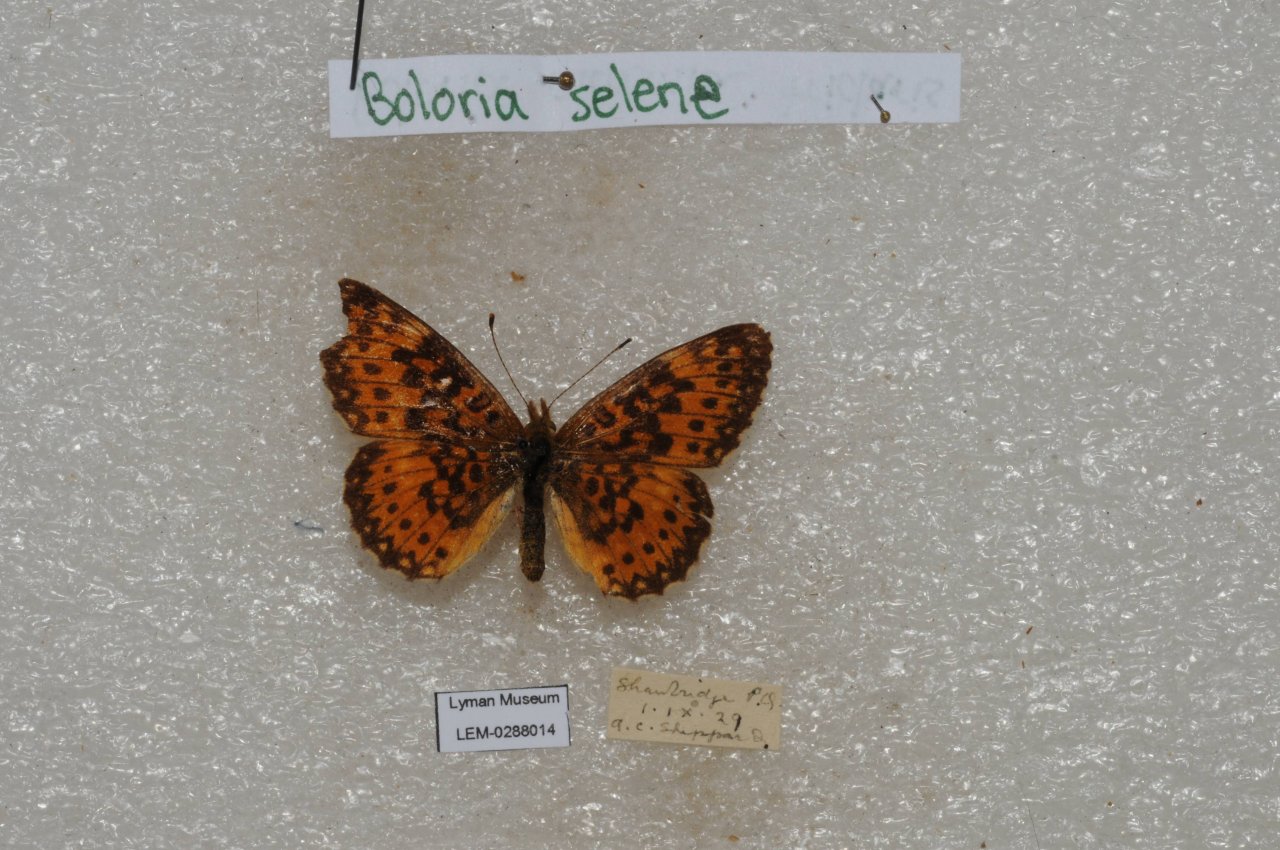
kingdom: Animalia
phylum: Arthropoda
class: Insecta
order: Lepidoptera
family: Nymphalidae
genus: Boloria
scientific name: Boloria selene
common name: Silver-bordered Fritillary
